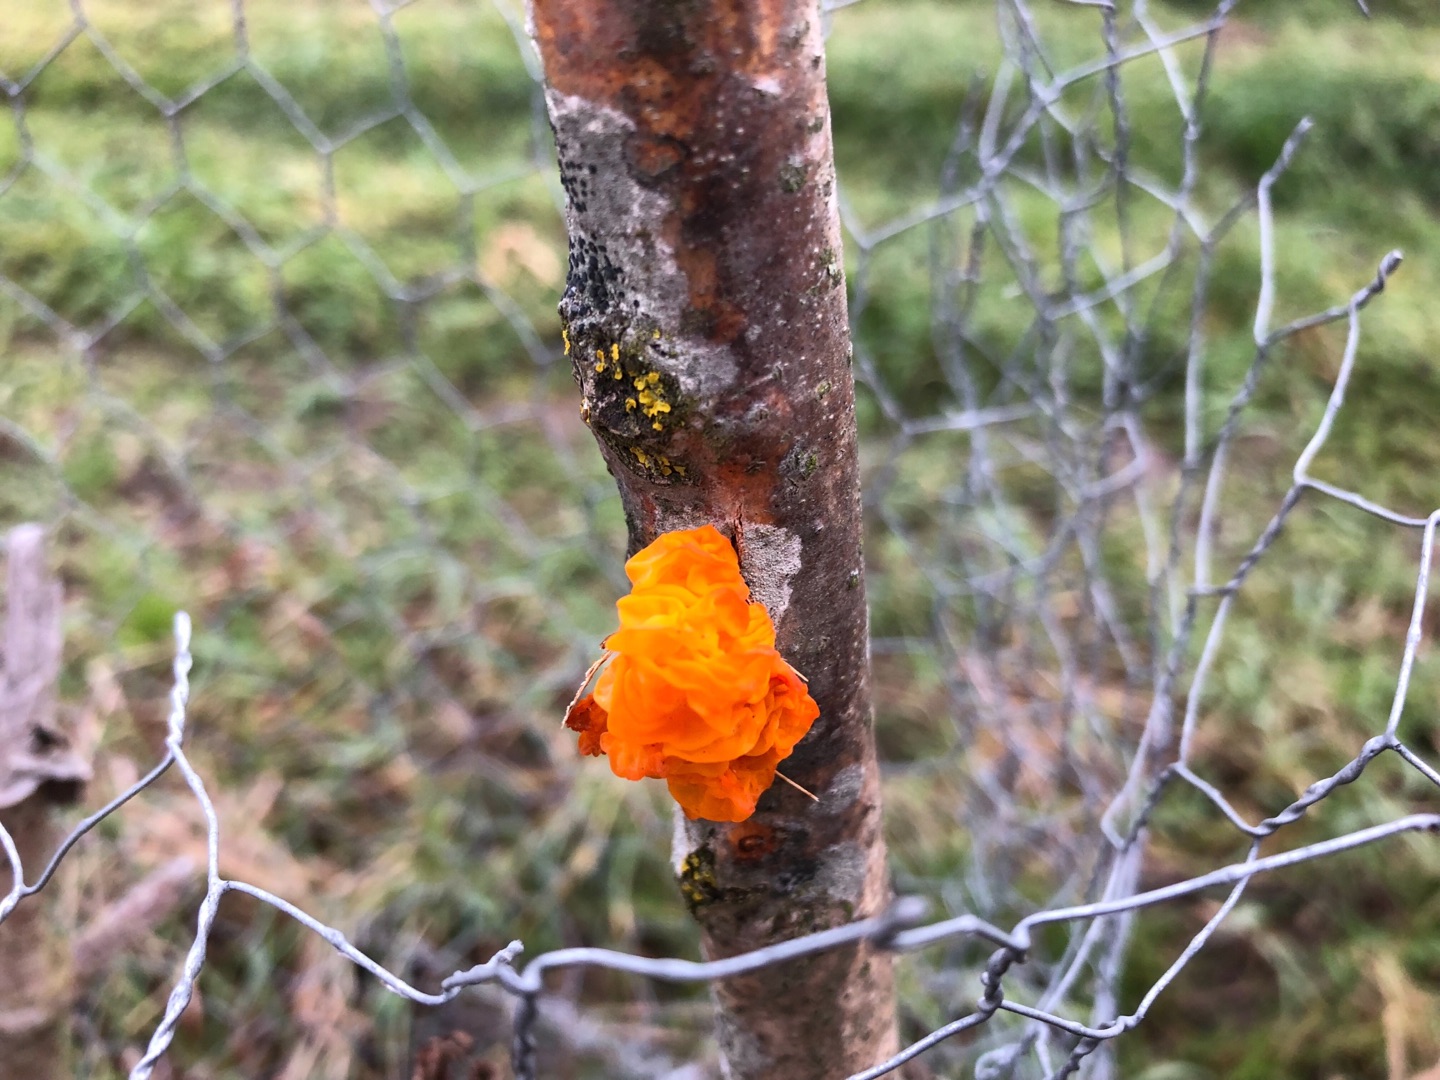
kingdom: Fungi
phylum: Basidiomycota
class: Tremellomycetes
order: Tremellales
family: Tremellaceae
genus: Tremella
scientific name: Tremella mesenterica
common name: Gul bævresvamp
